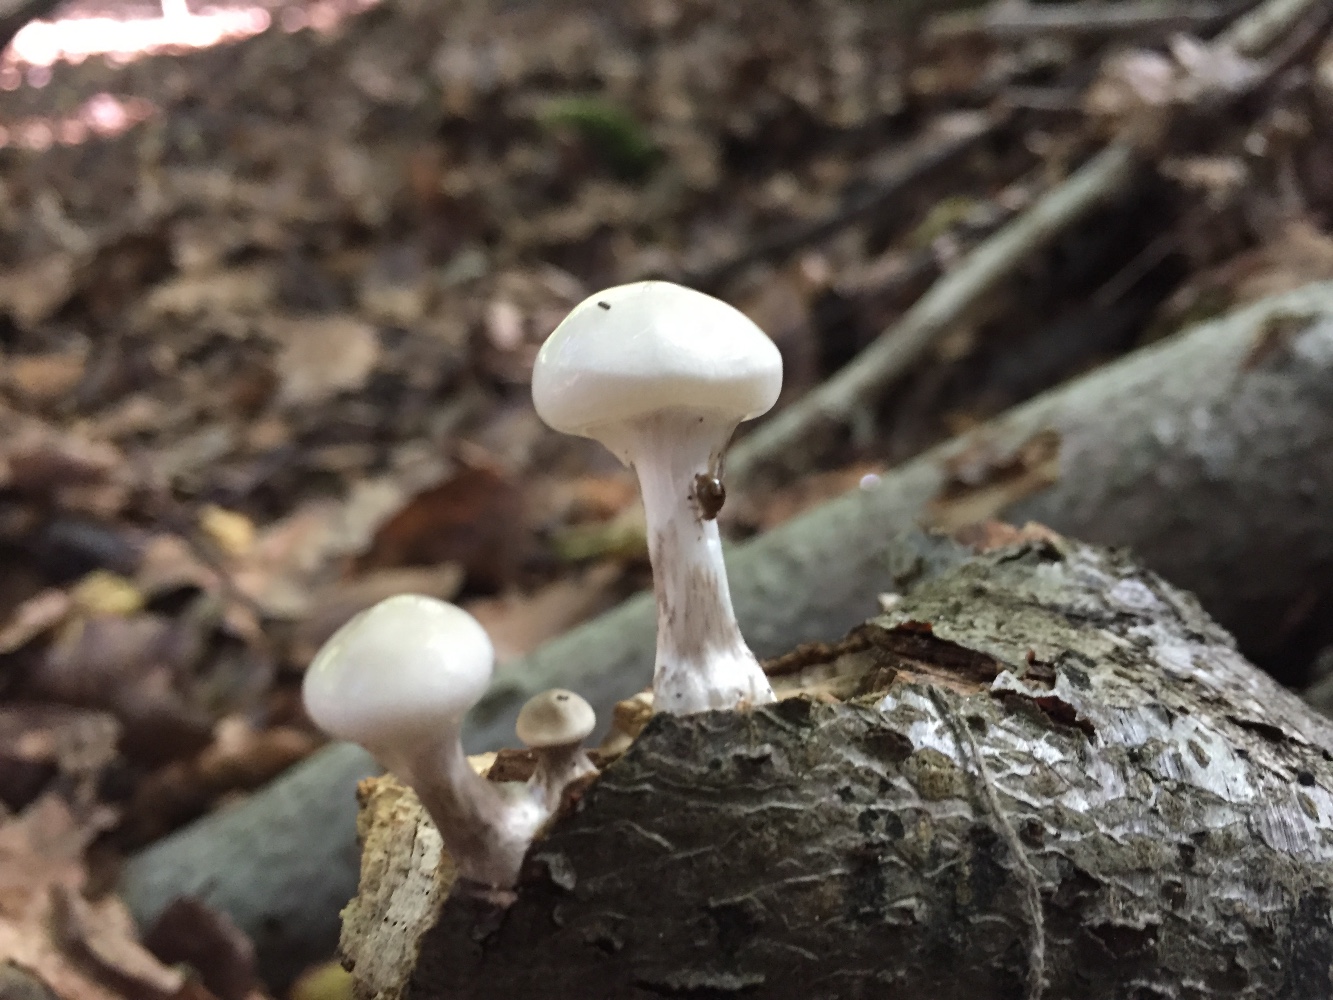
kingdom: Fungi
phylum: Basidiomycota
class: Agaricomycetes
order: Agaricales
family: Physalacriaceae
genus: Mucidula
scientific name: Mucidula mucida
